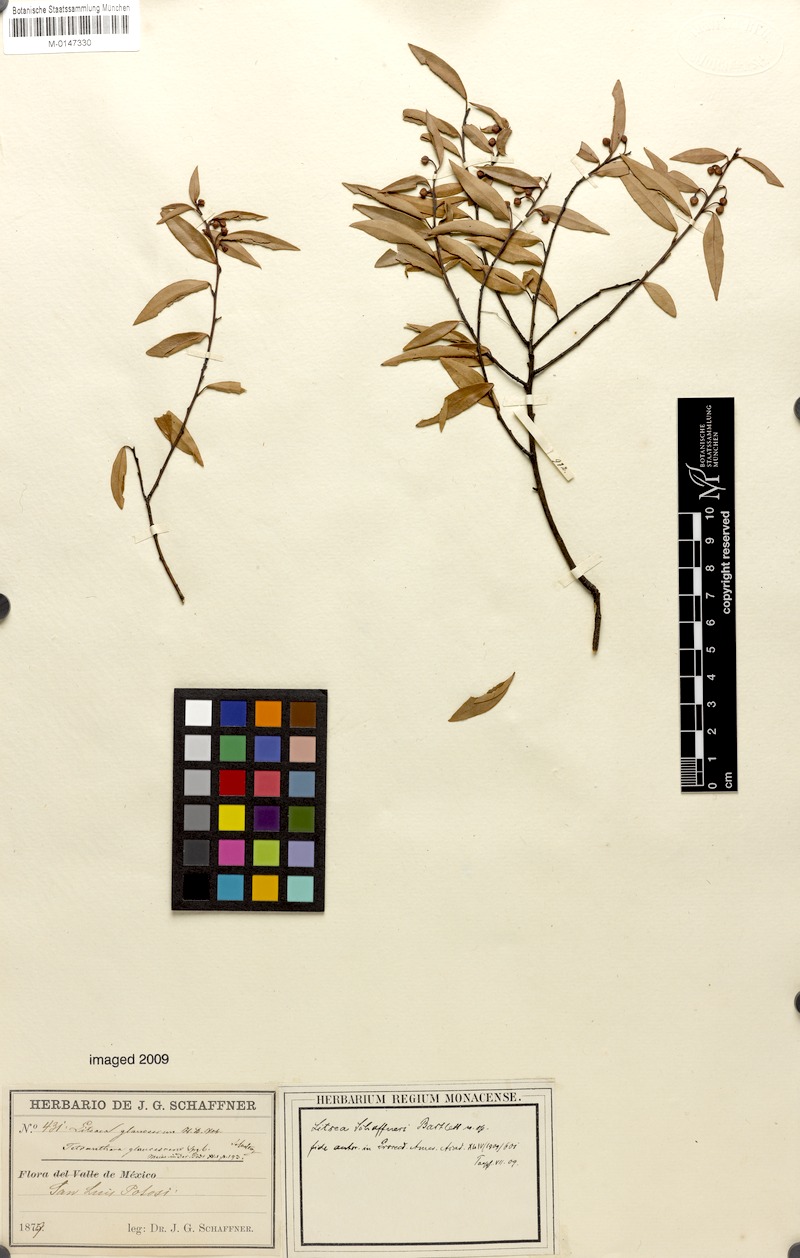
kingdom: Plantae
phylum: Tracheophyta
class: Magnoliopsida
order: Laurales
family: Lauraceae
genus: Licaria
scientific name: Licaria triandra
